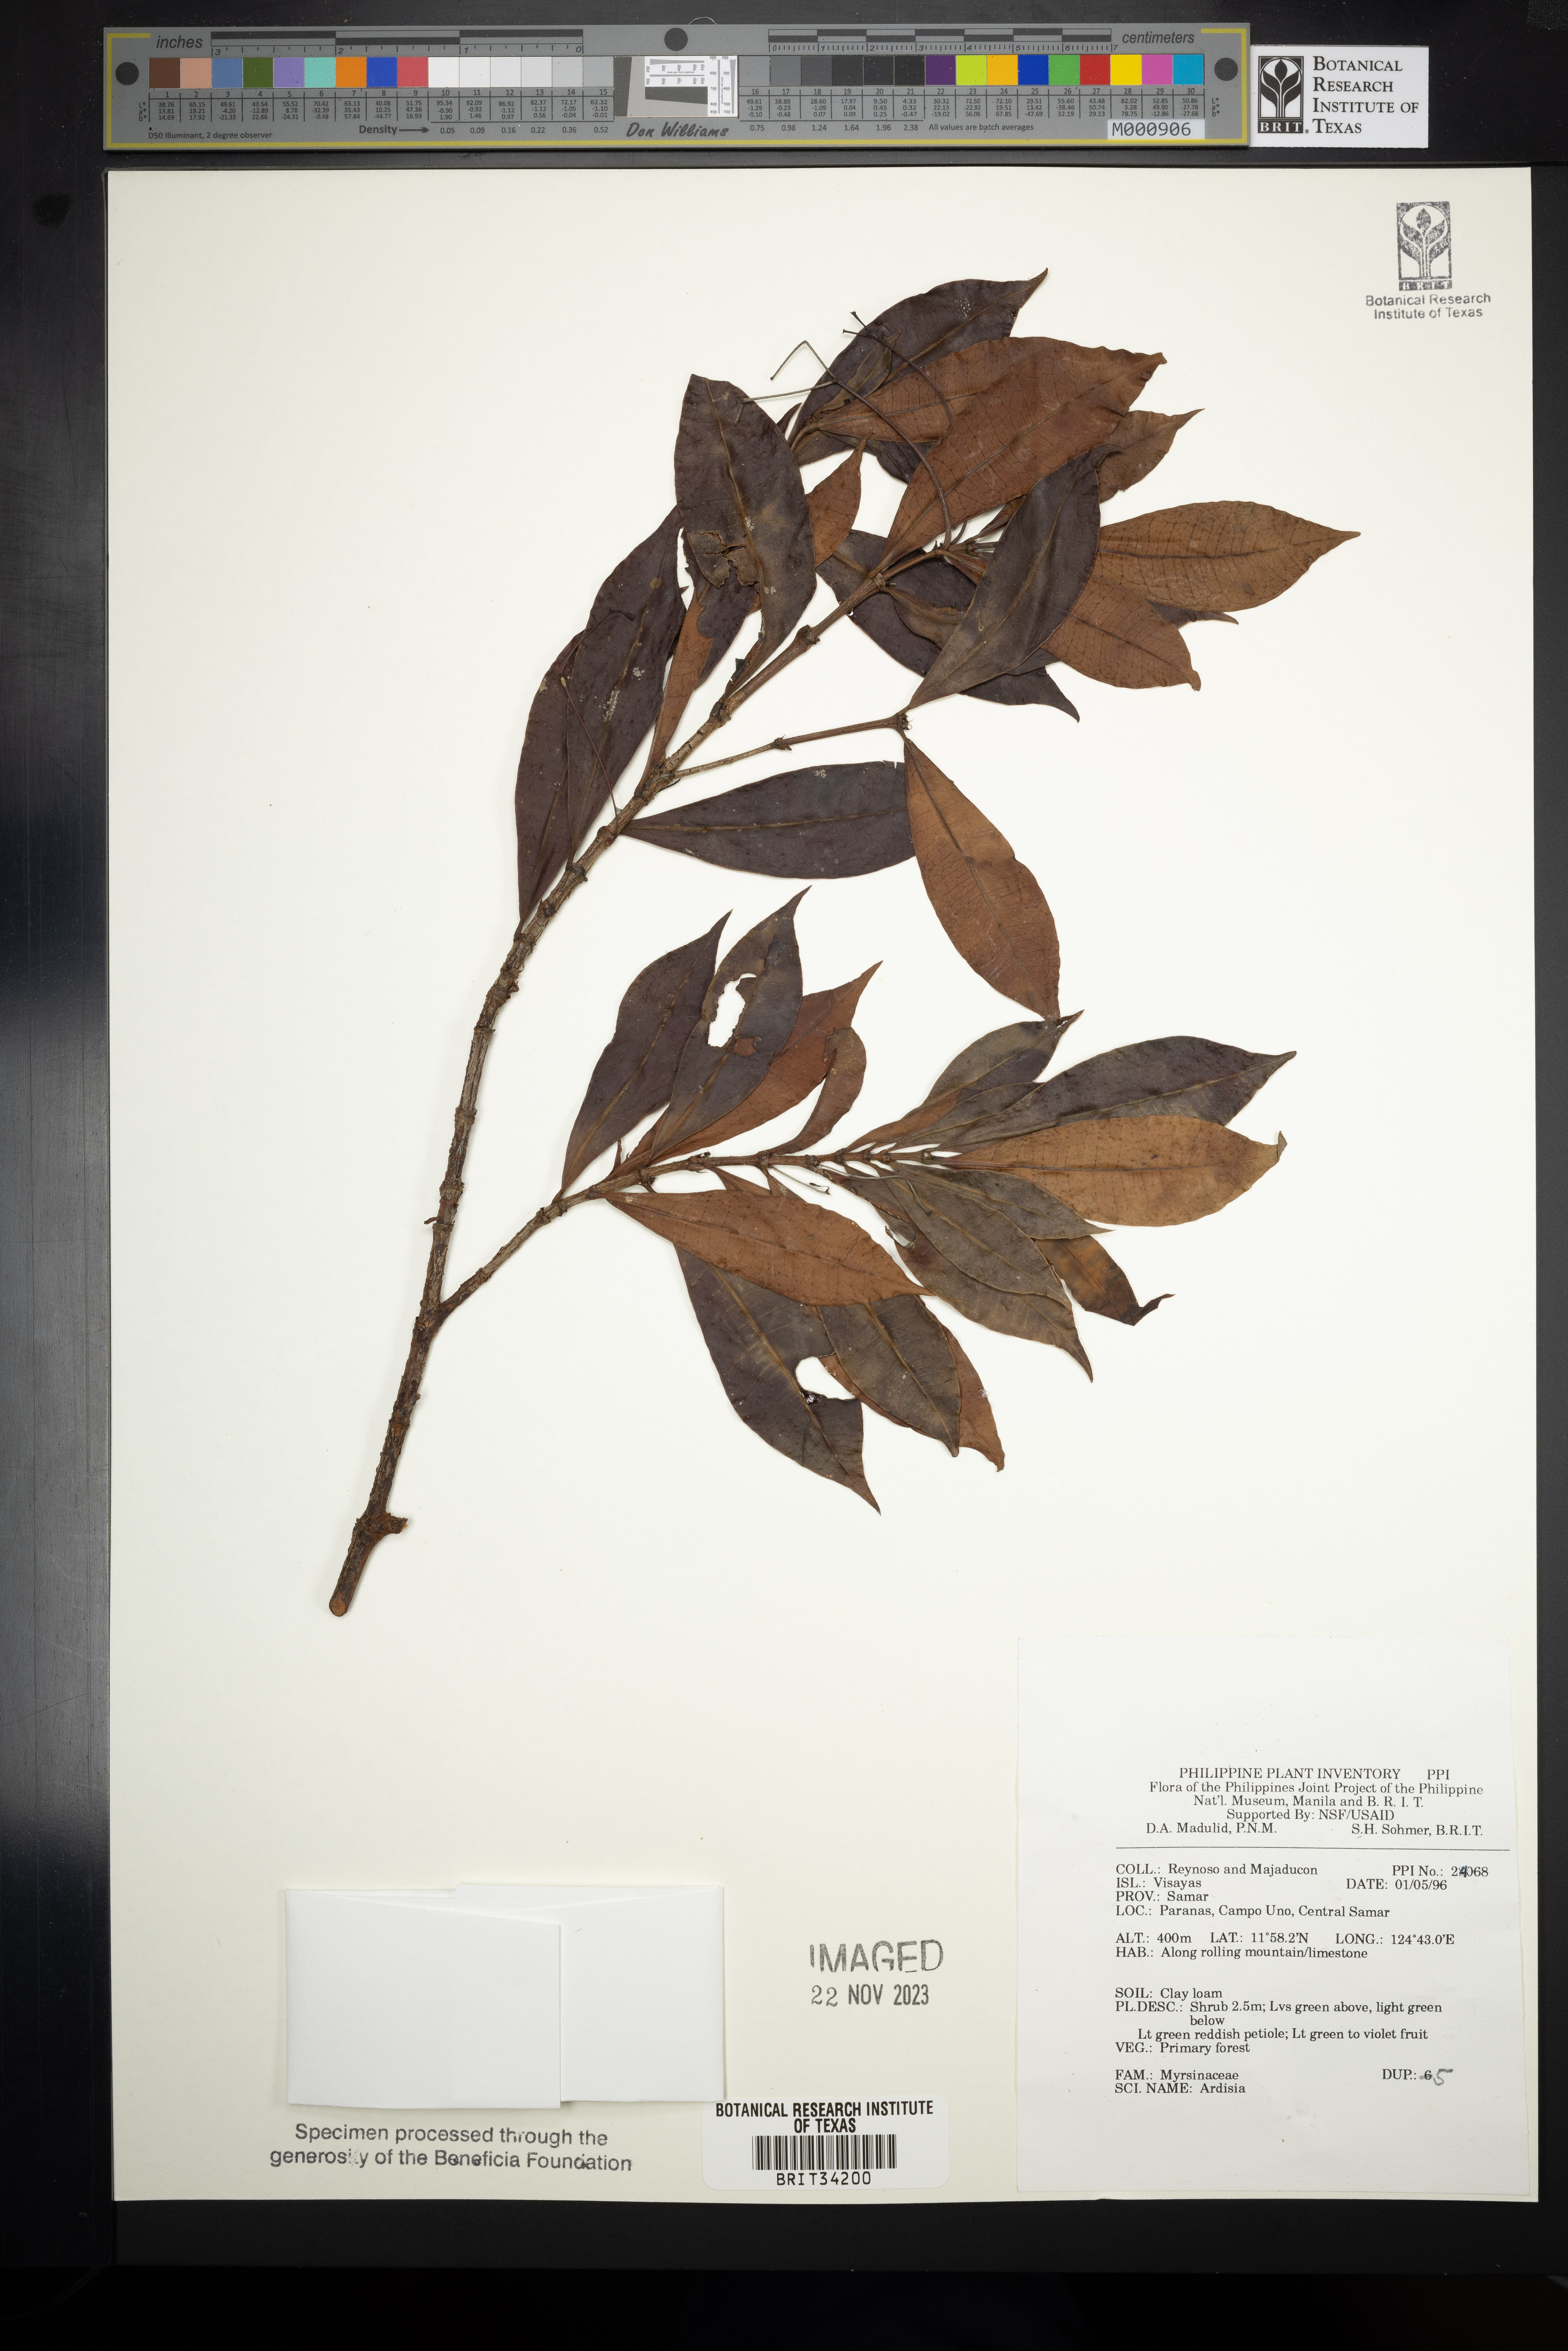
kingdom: Plantae
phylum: Tracheophyta
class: Magnoliopsida
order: Ericales
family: Primulaceae
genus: Ardisia
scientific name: Ardisia
